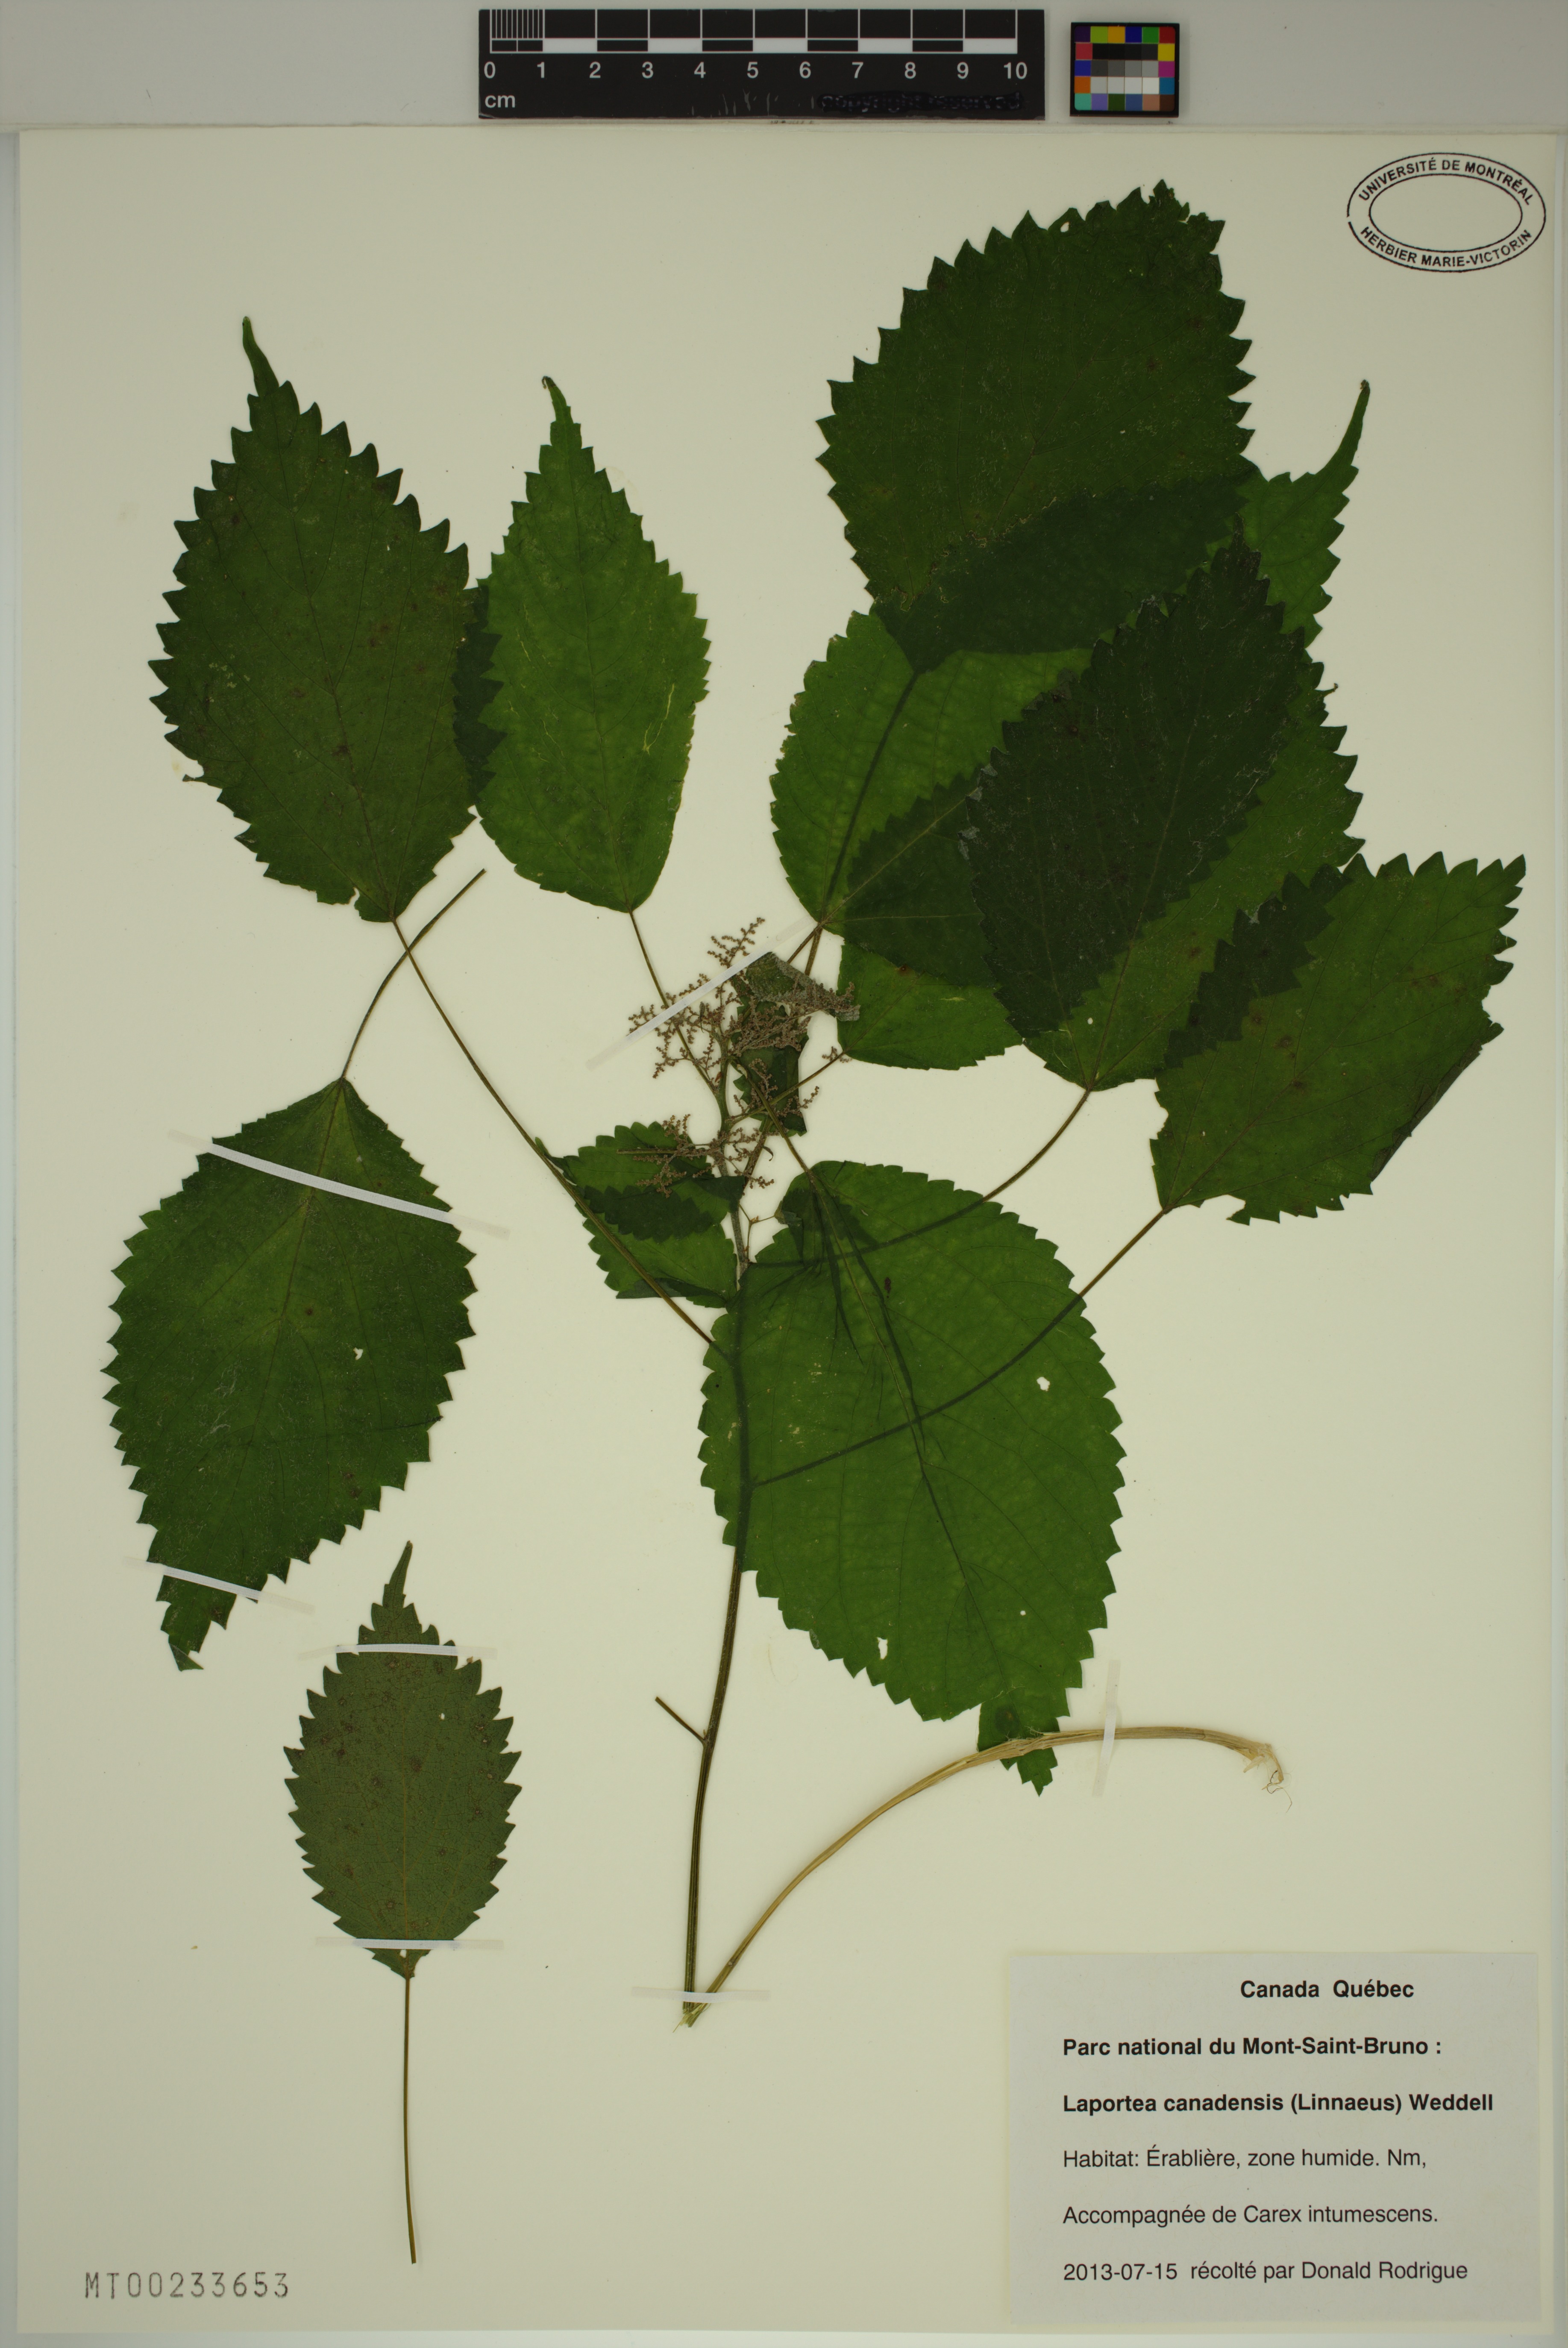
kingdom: Plantae
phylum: Tracheophyta
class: Magnoliopsida
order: Rosales
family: Urticaceae
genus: Laportea
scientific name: Laportea canadensis
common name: Canada nettle
